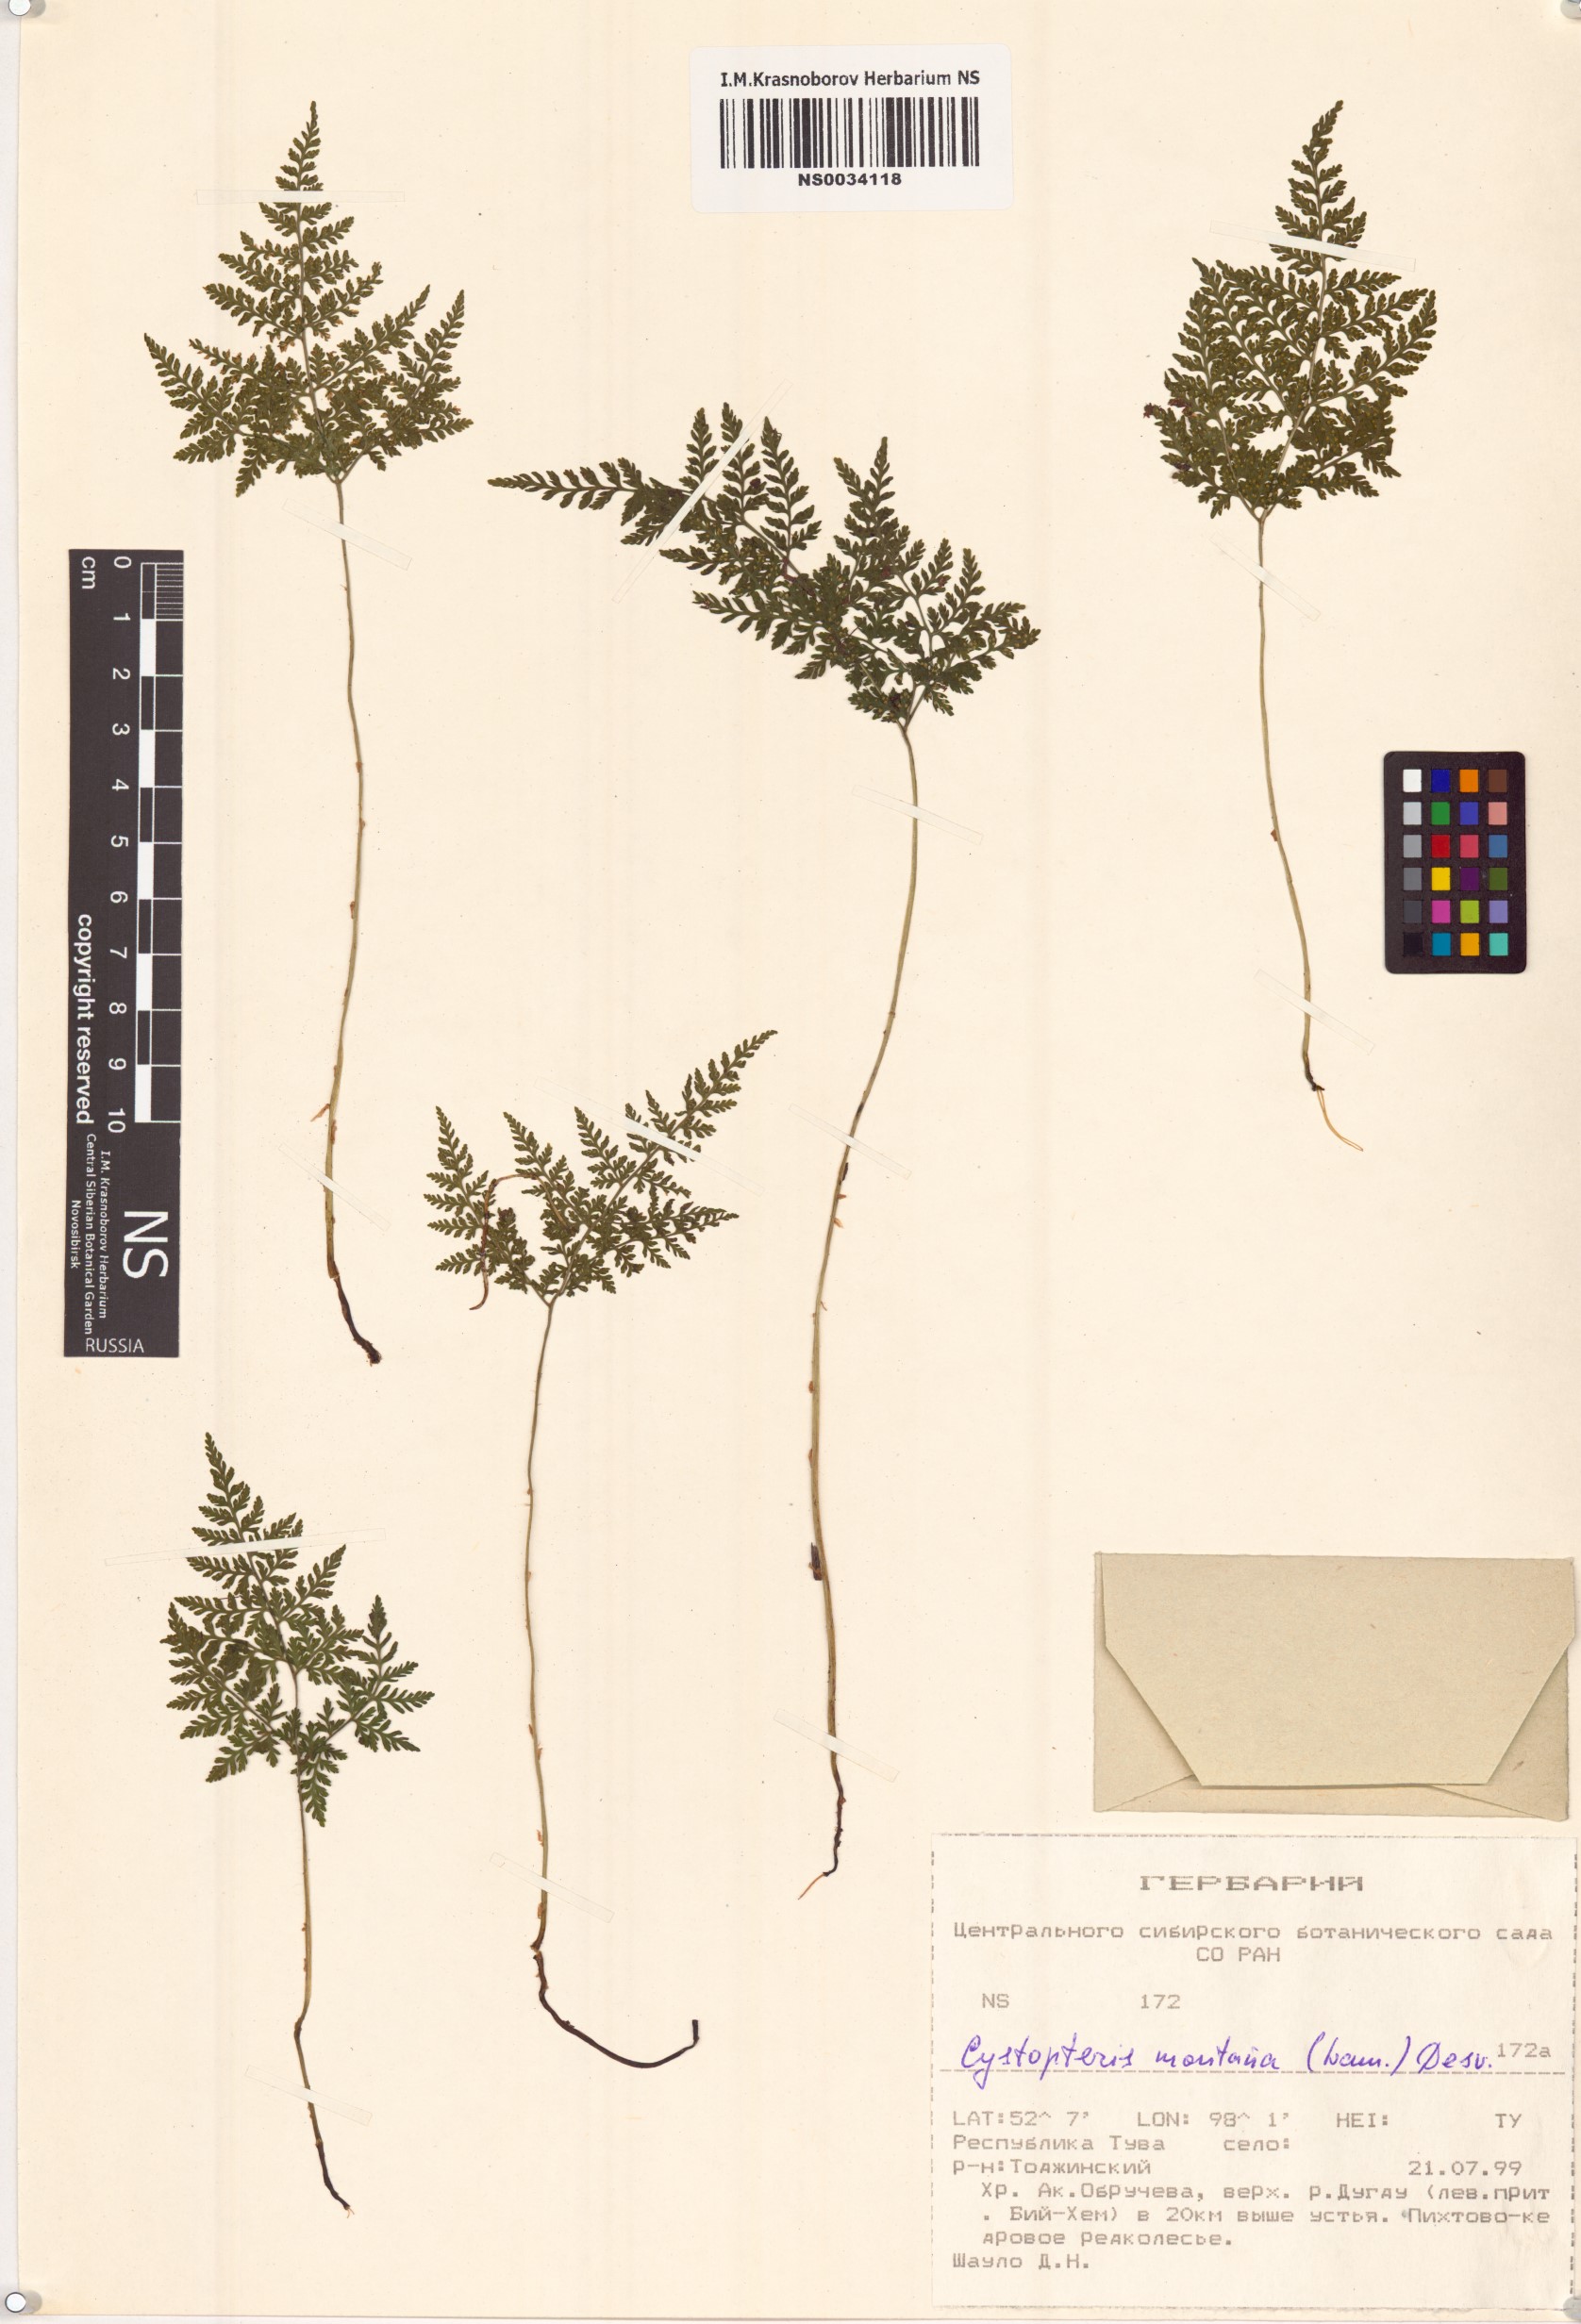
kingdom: Plantae
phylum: Tracheophyta
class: Polypodiopsida
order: Polypodiales
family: Cystopteridaceae
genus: Cystopteris
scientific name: Cystopteris montana
